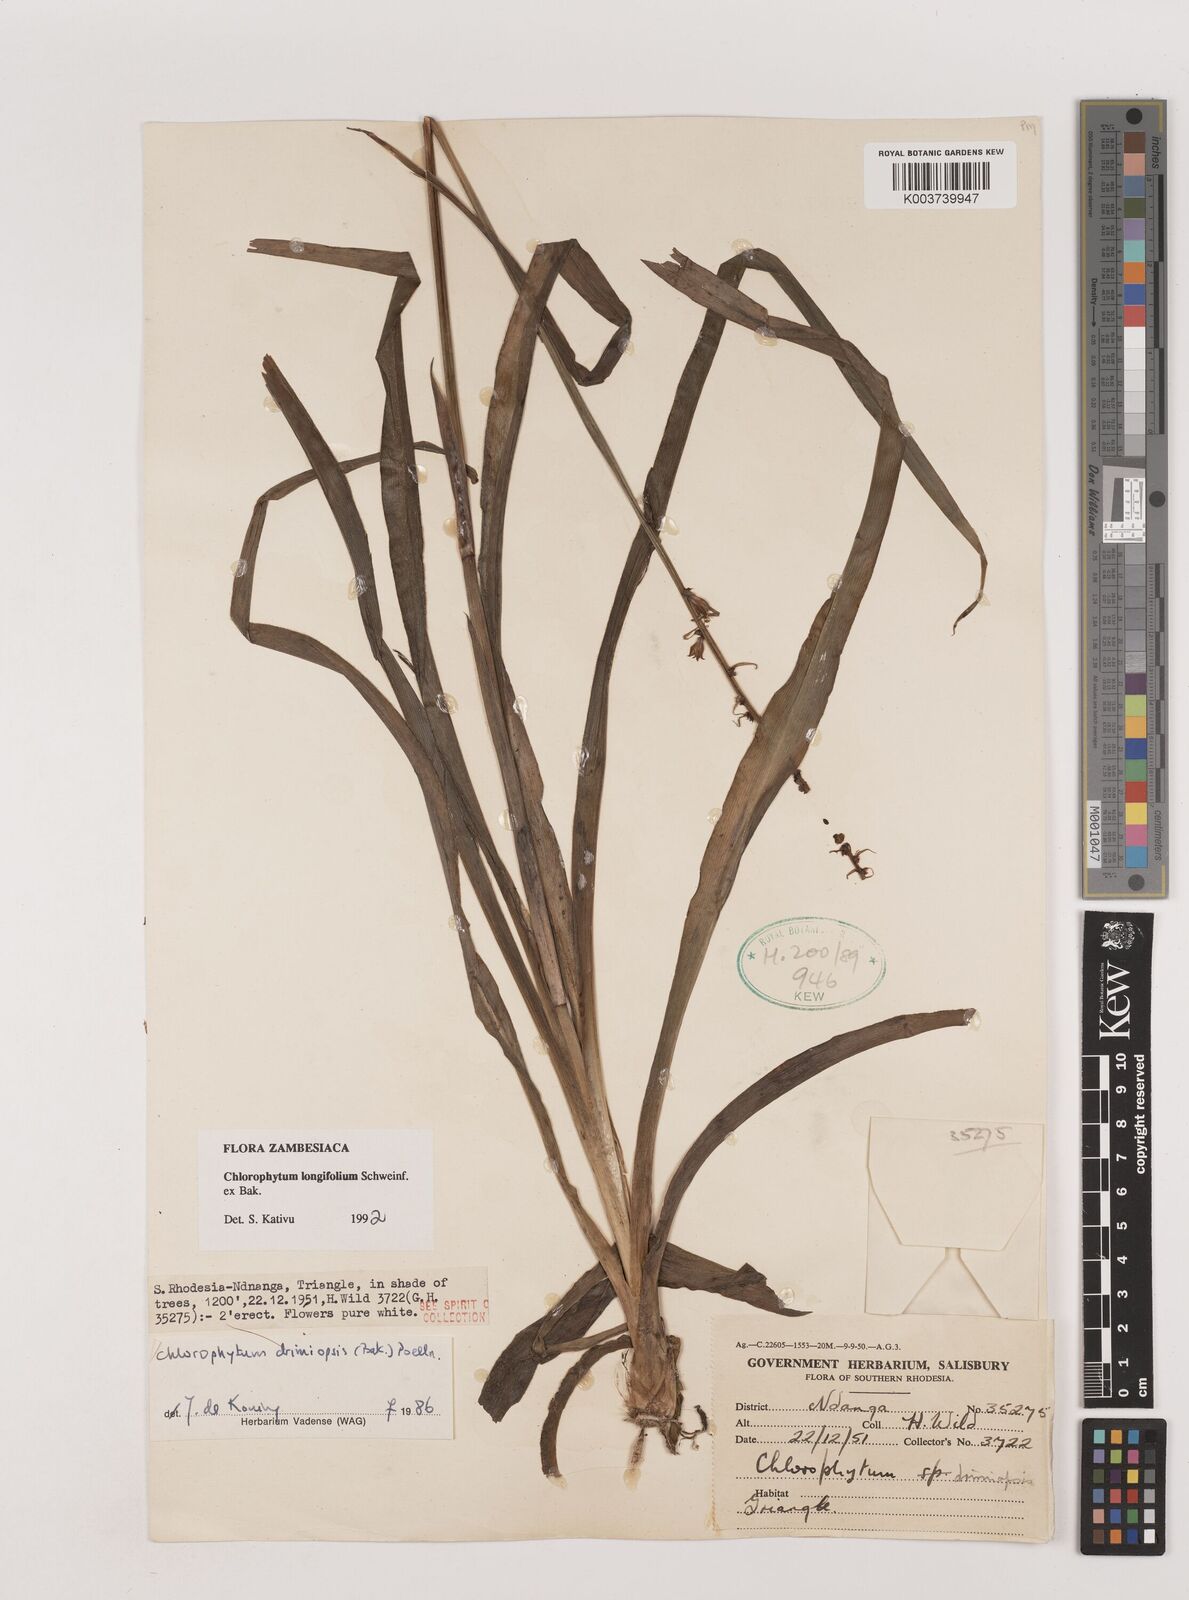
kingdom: Plantae
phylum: Tracheophyta
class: Liliopsida
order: Asparagales
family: Asparagaceae
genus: Chlorophytum
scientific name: Chlorophytum longifolium
